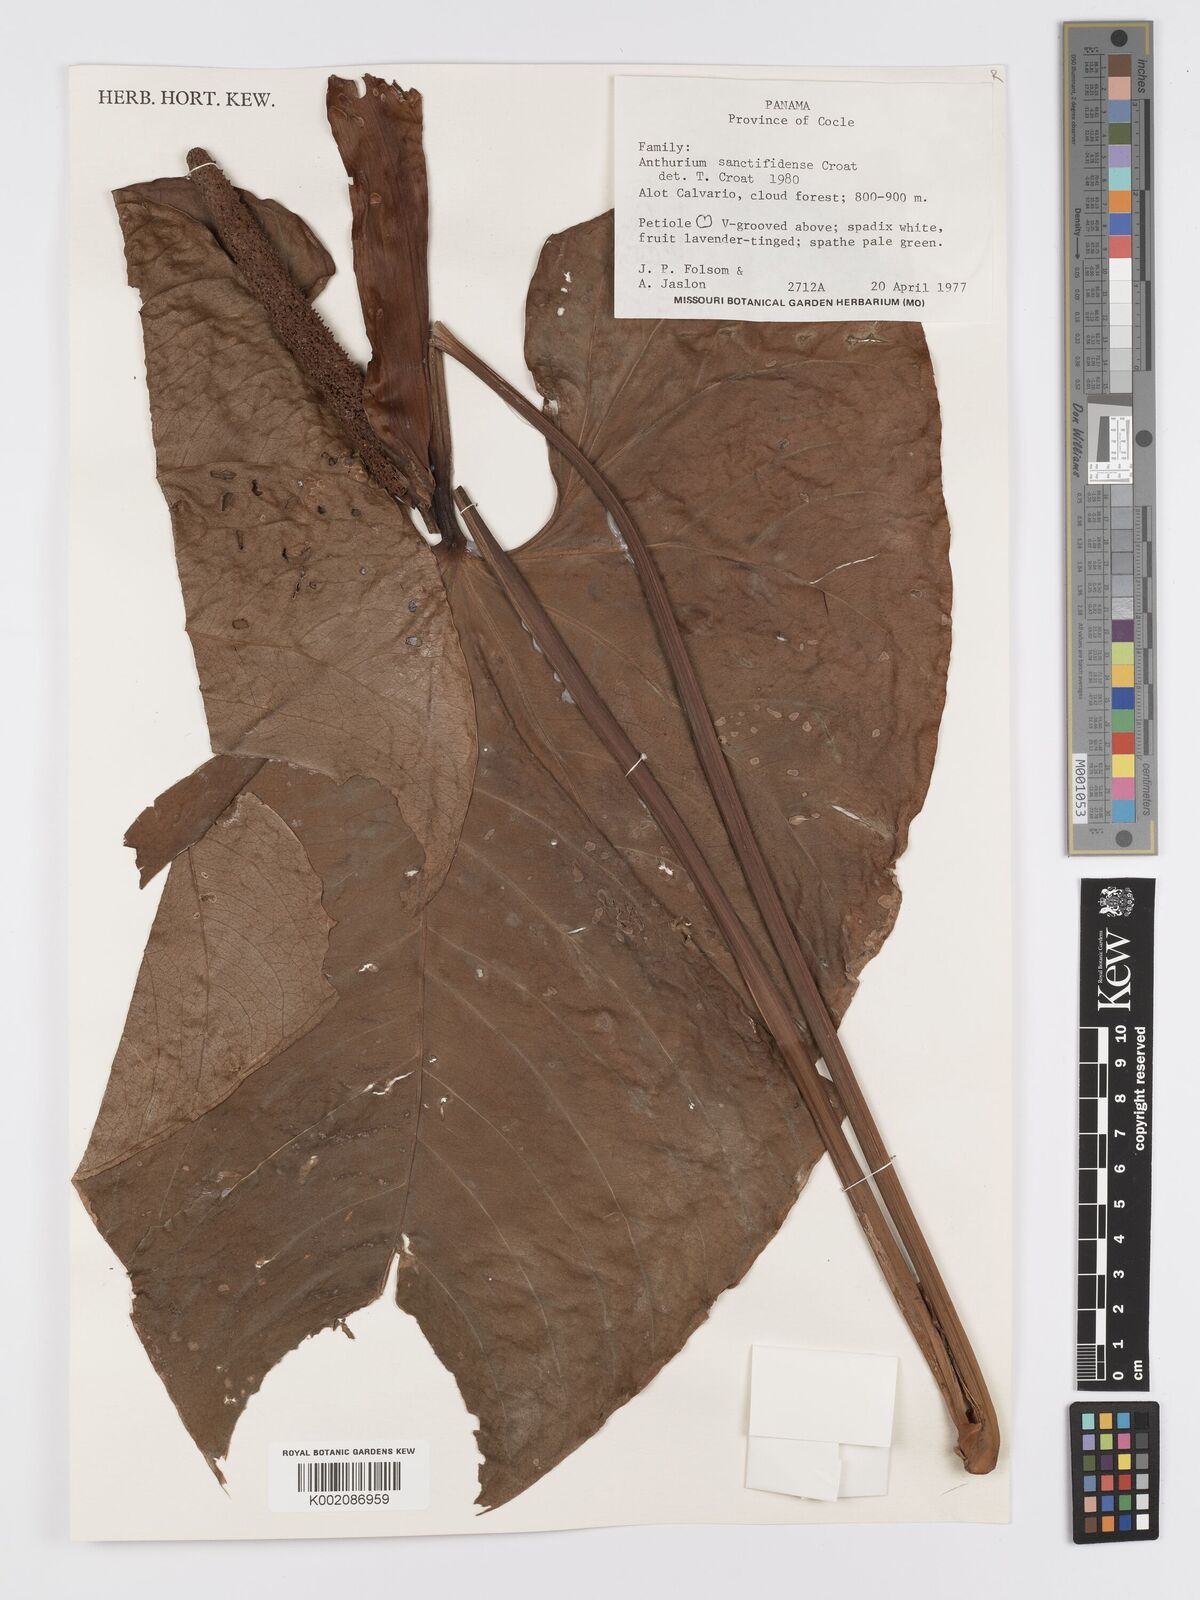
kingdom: Plantae
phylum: Tracheophyta
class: Liliopsida
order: Alismatales
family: Araceae
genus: Anthurium
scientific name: Anthurium sanctifidense
